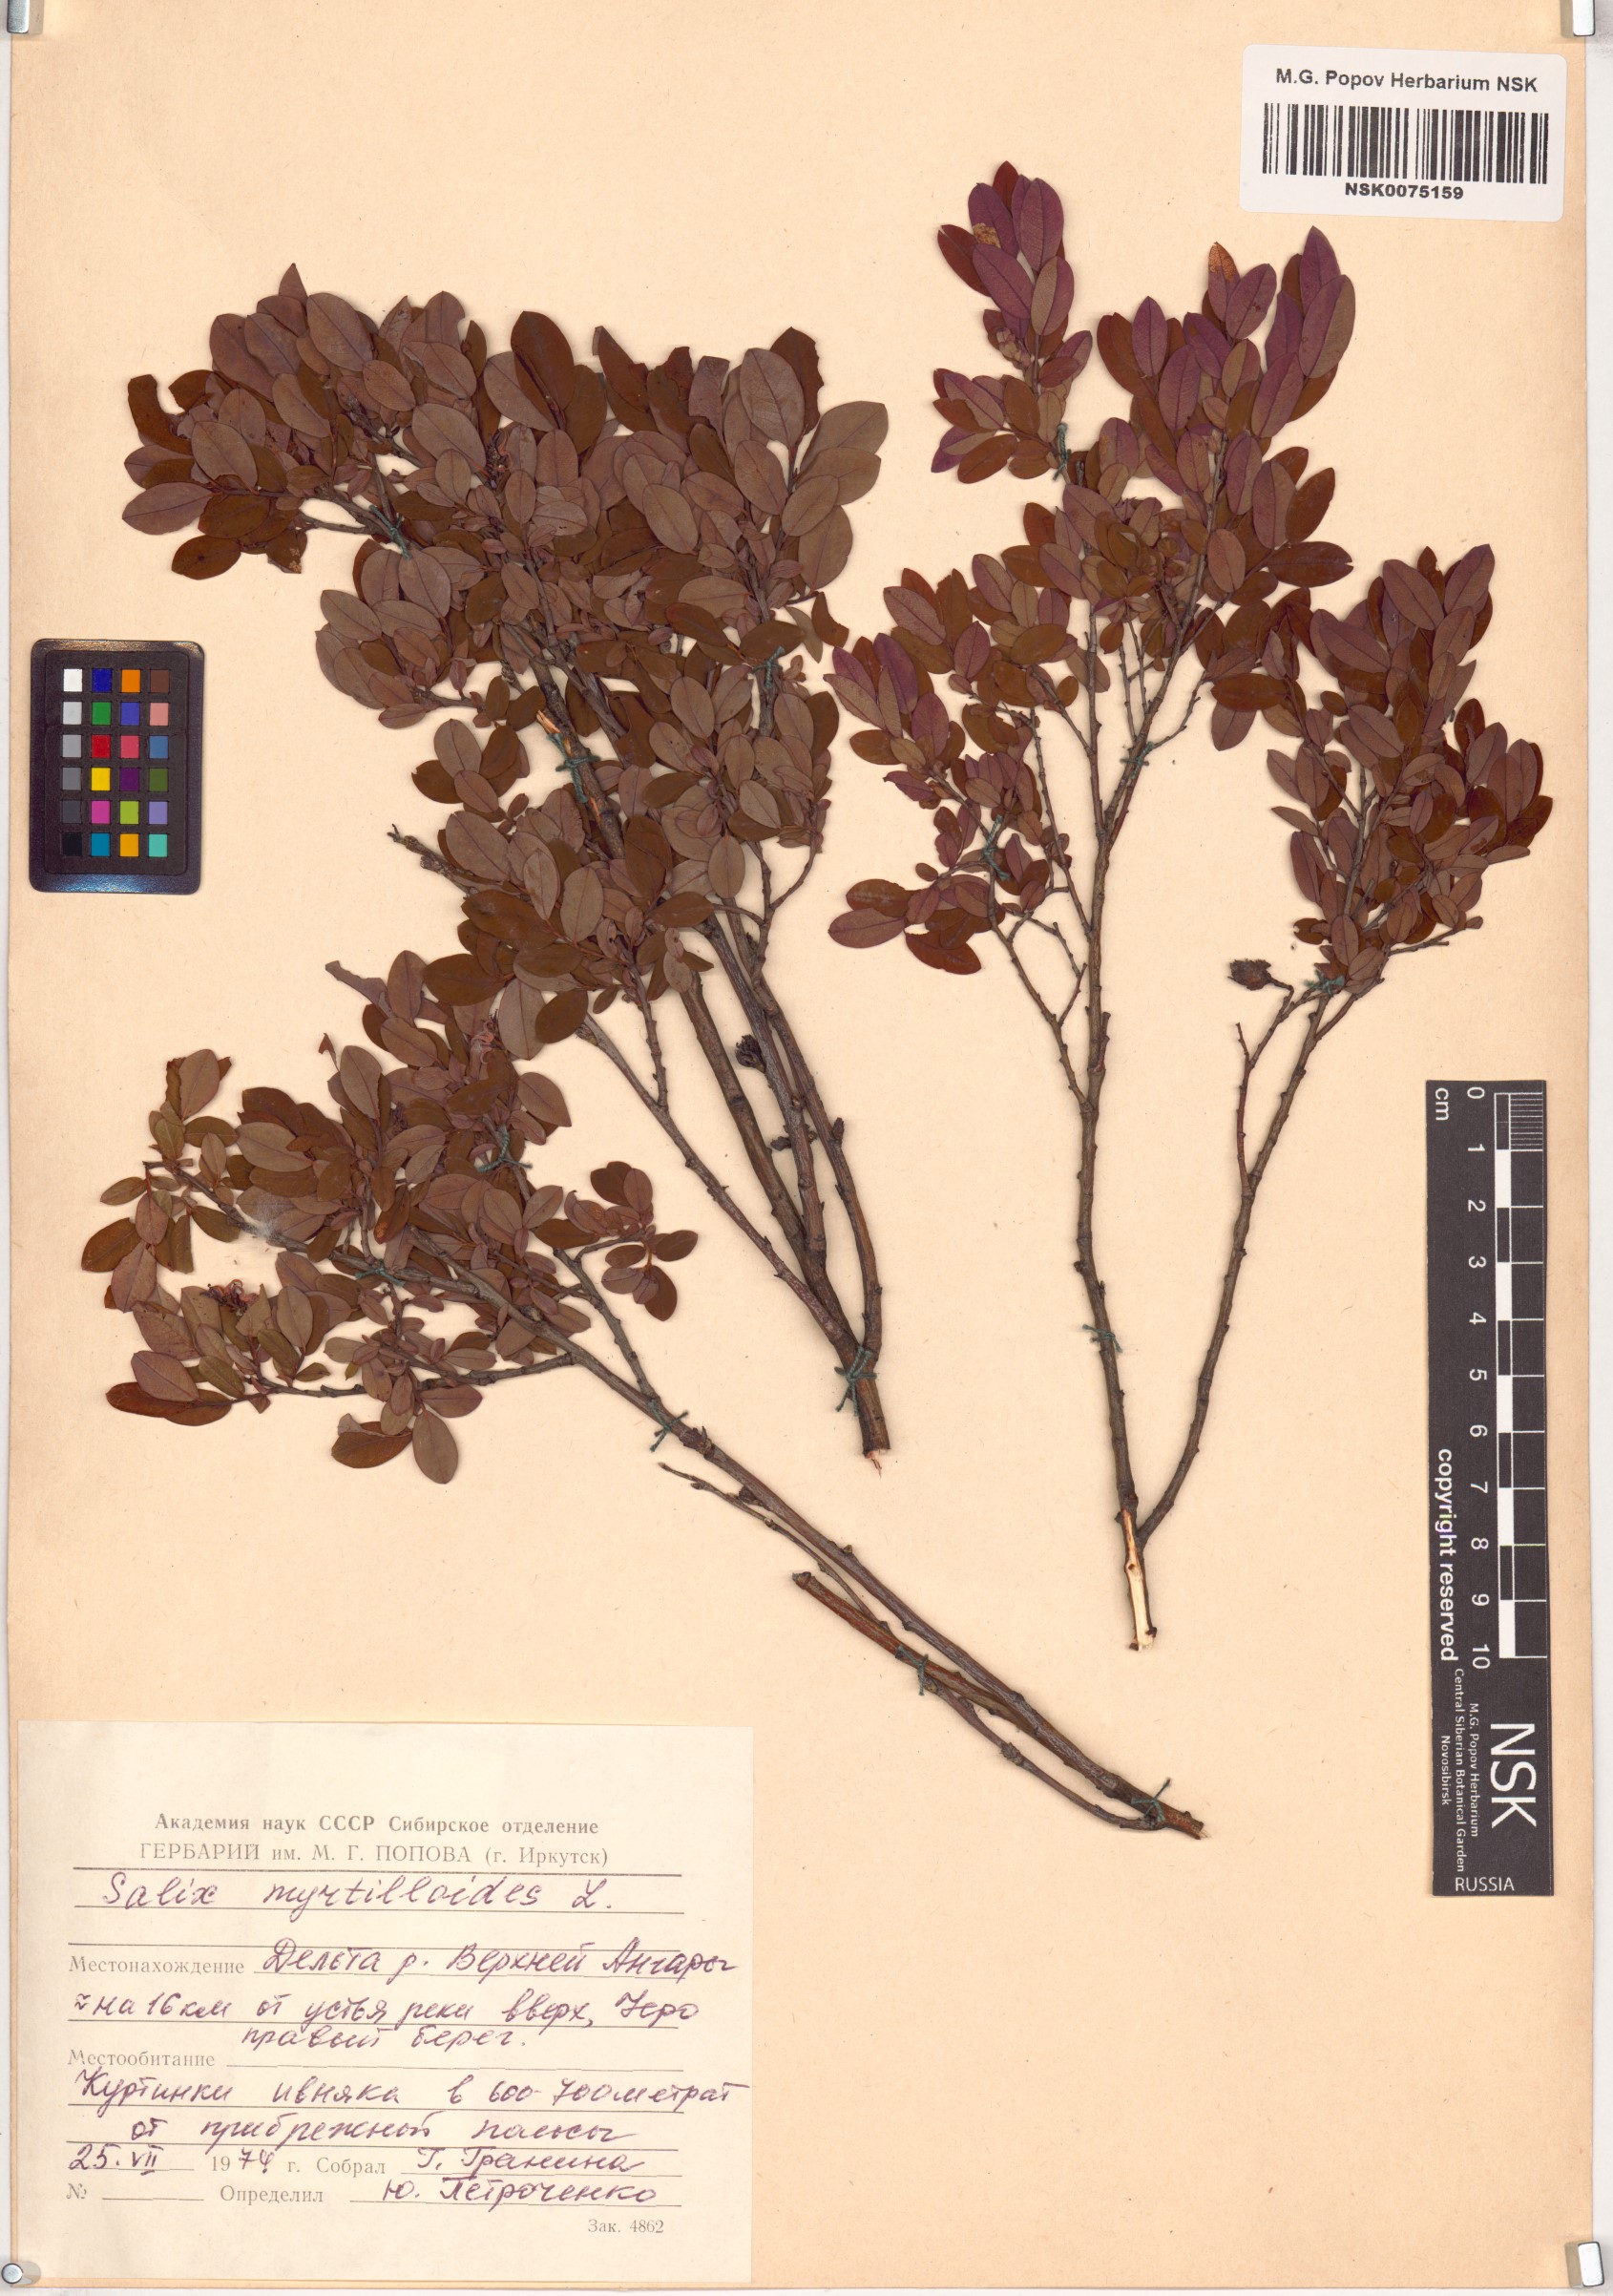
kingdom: Plantae
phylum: Tracheophyta
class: Magnoliopsida
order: Malpighiales
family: Salicaceae
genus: Salix
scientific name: Salix myrtilloides
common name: Myrtle-leaved willow
